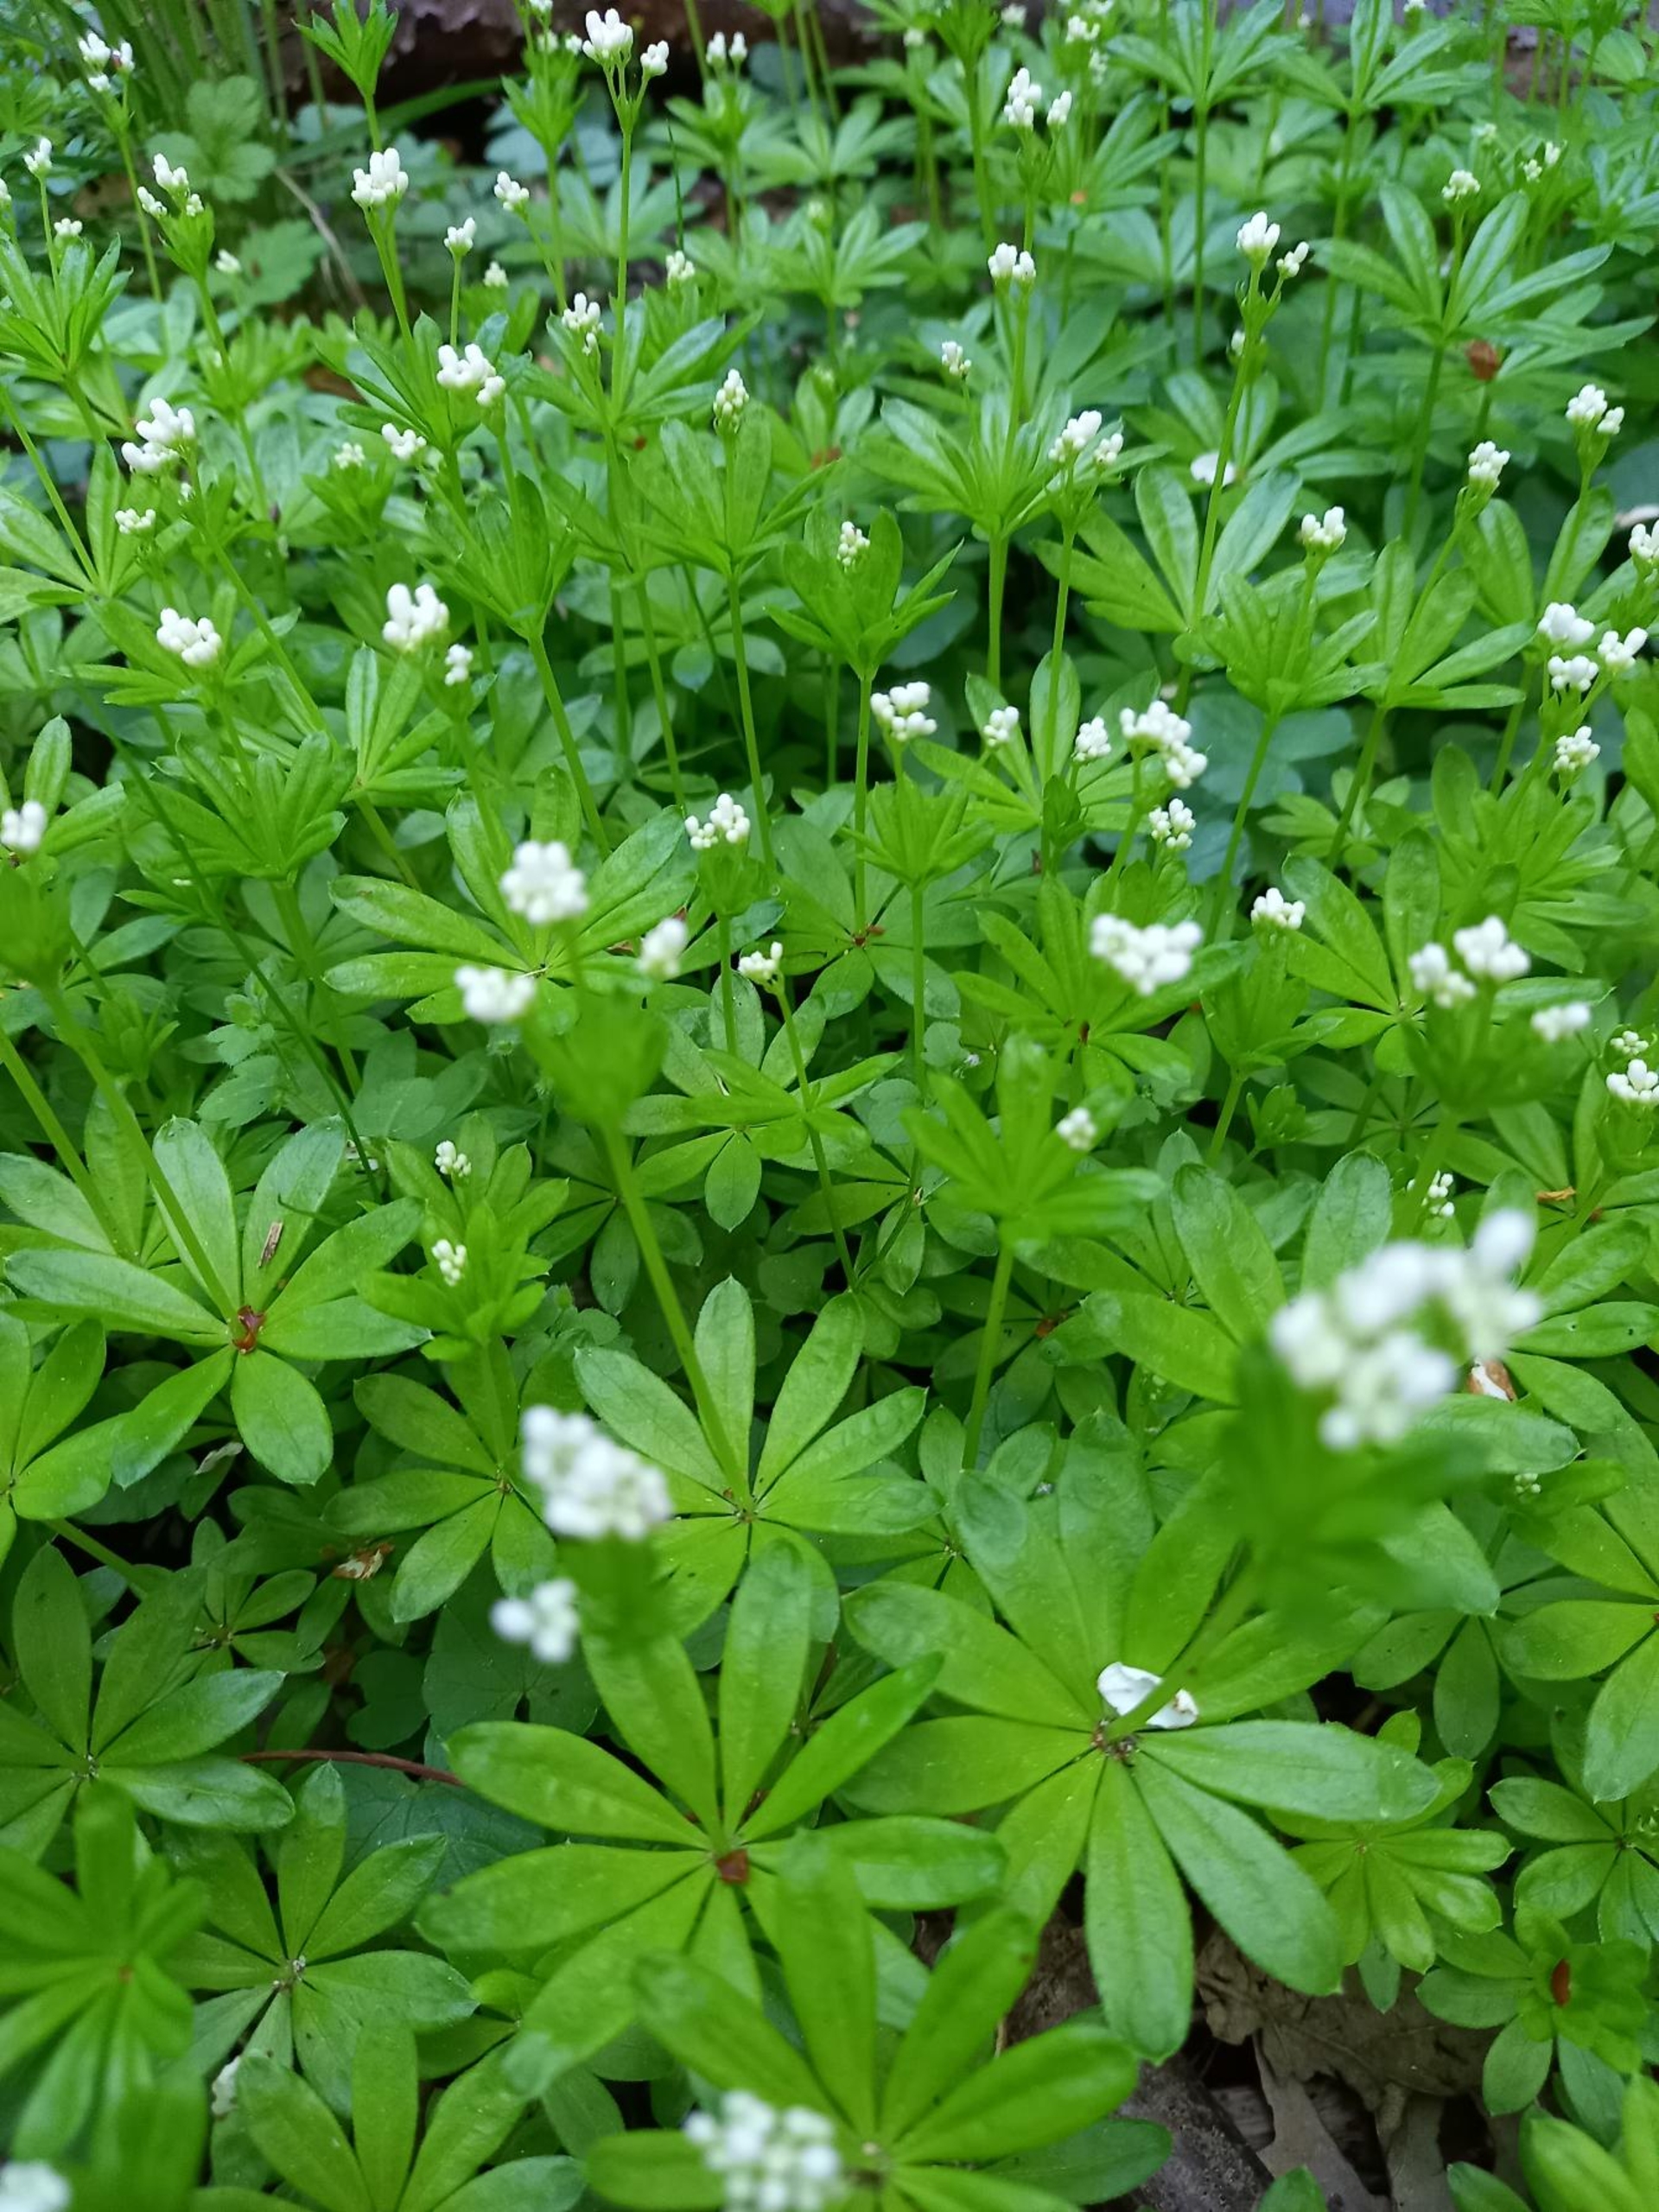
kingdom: Plantae
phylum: Tracheophyta
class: Magnoliopsida
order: Gentianales
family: Rubiaceae
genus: Galium
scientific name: Galium odoratum
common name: Skovmærke
